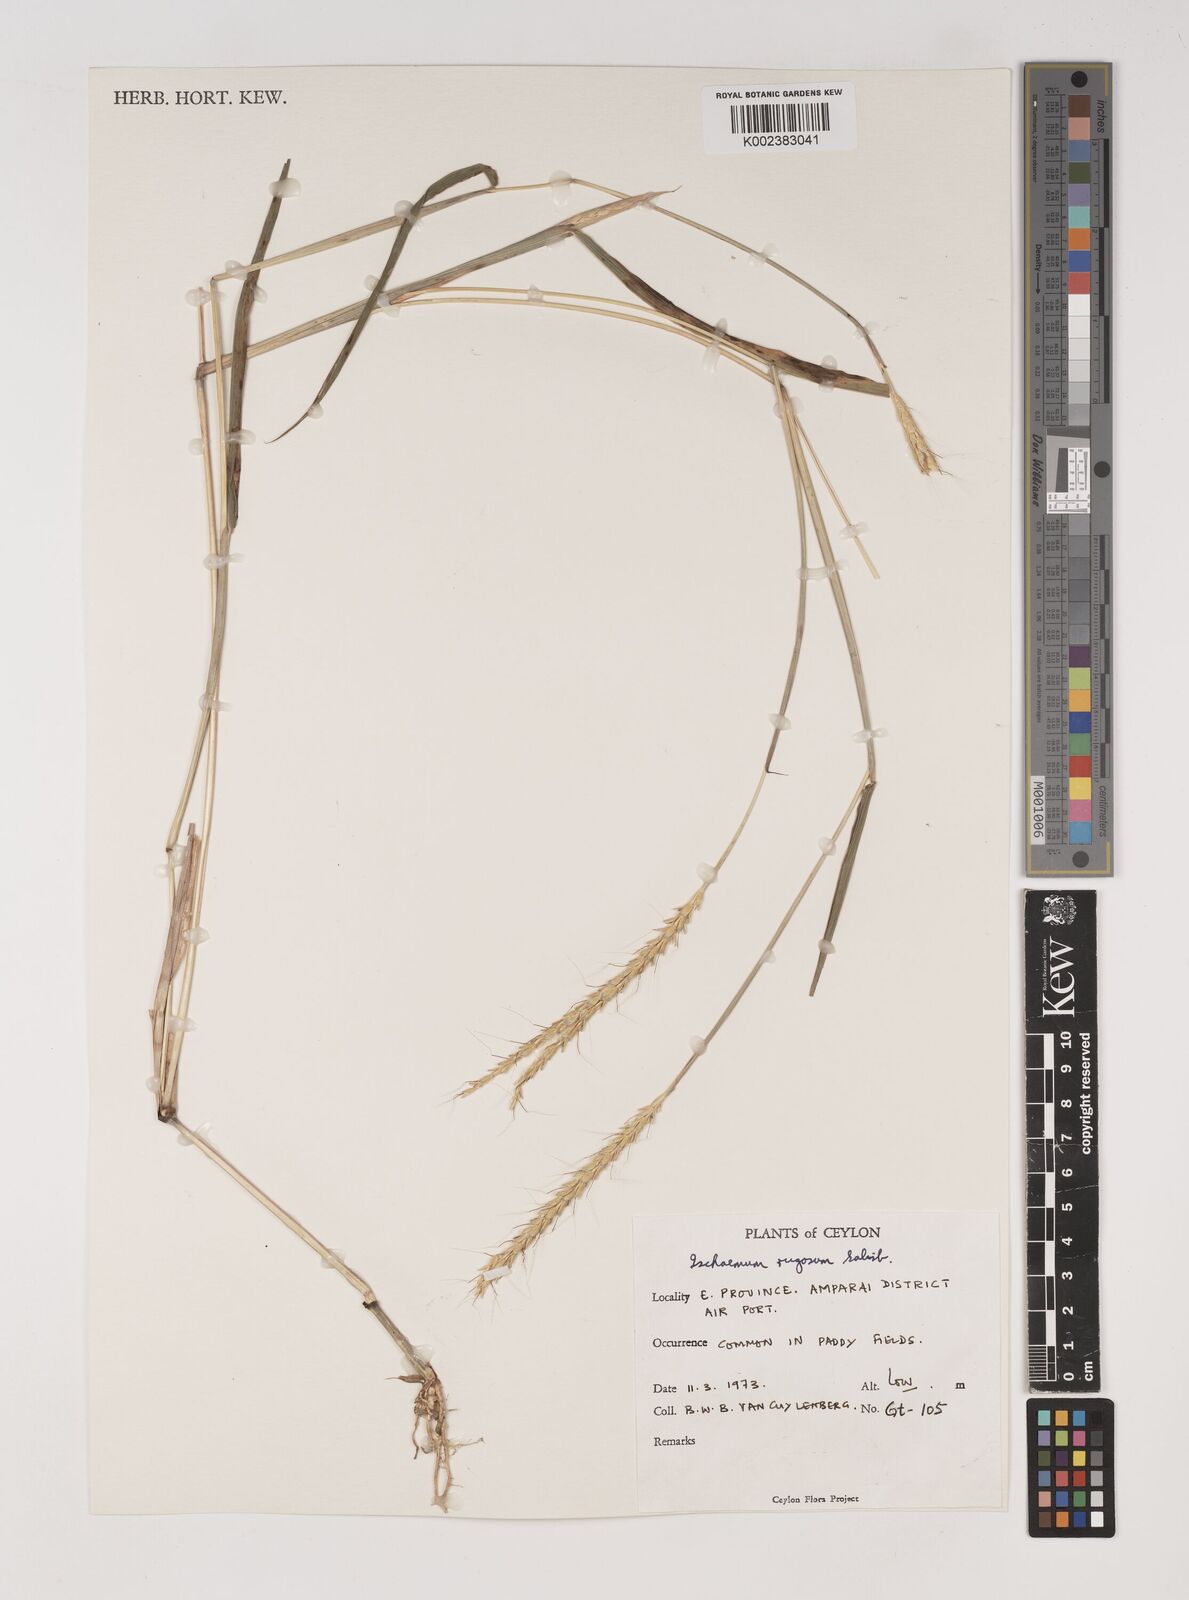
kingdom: Plantae
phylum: Tracheophyta
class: Liliopsida
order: Poales
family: Poaceae
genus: Ischaemum
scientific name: Ischaemum rugosum
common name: Saramatta grass
